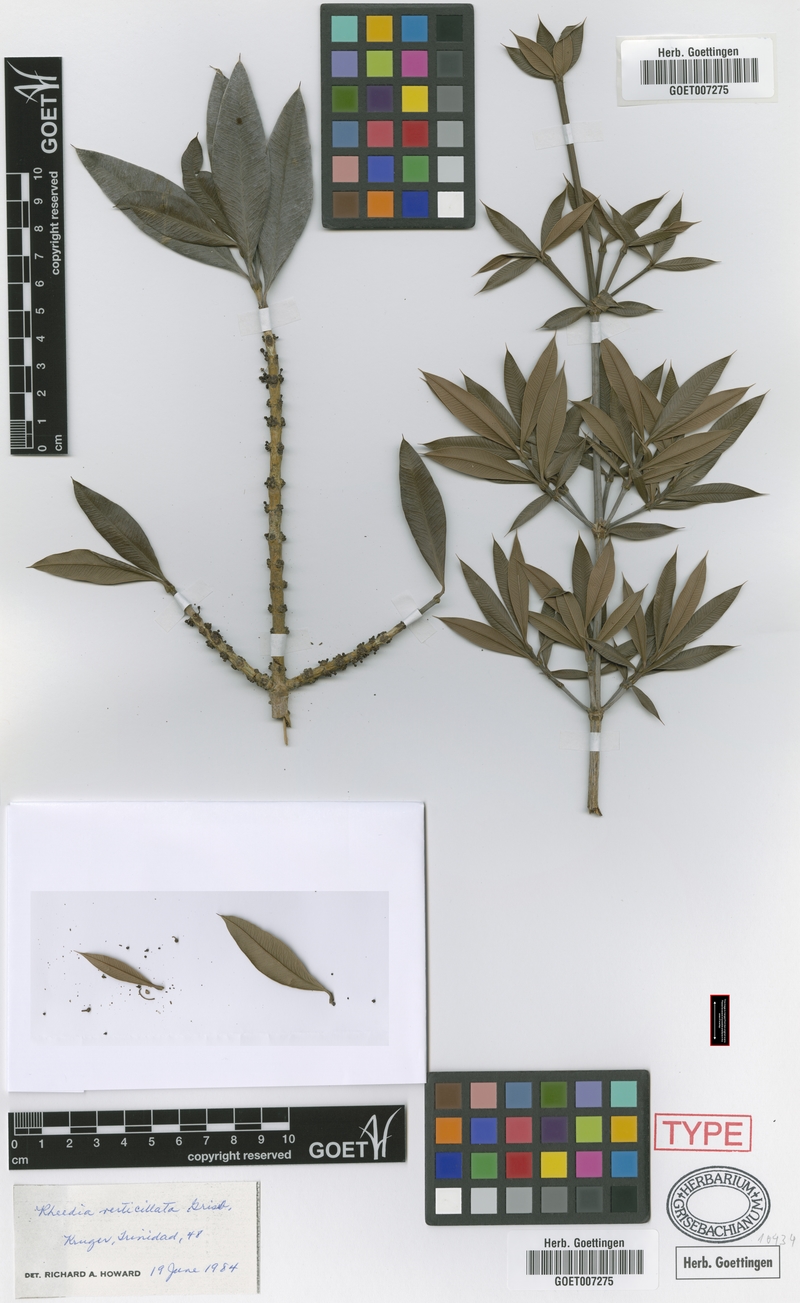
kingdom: Plantae
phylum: Tracheophyta
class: Magnoliopsida
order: Malpighiales
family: Clusiaceae
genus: Garcinia
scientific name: Garcinia verticillata
